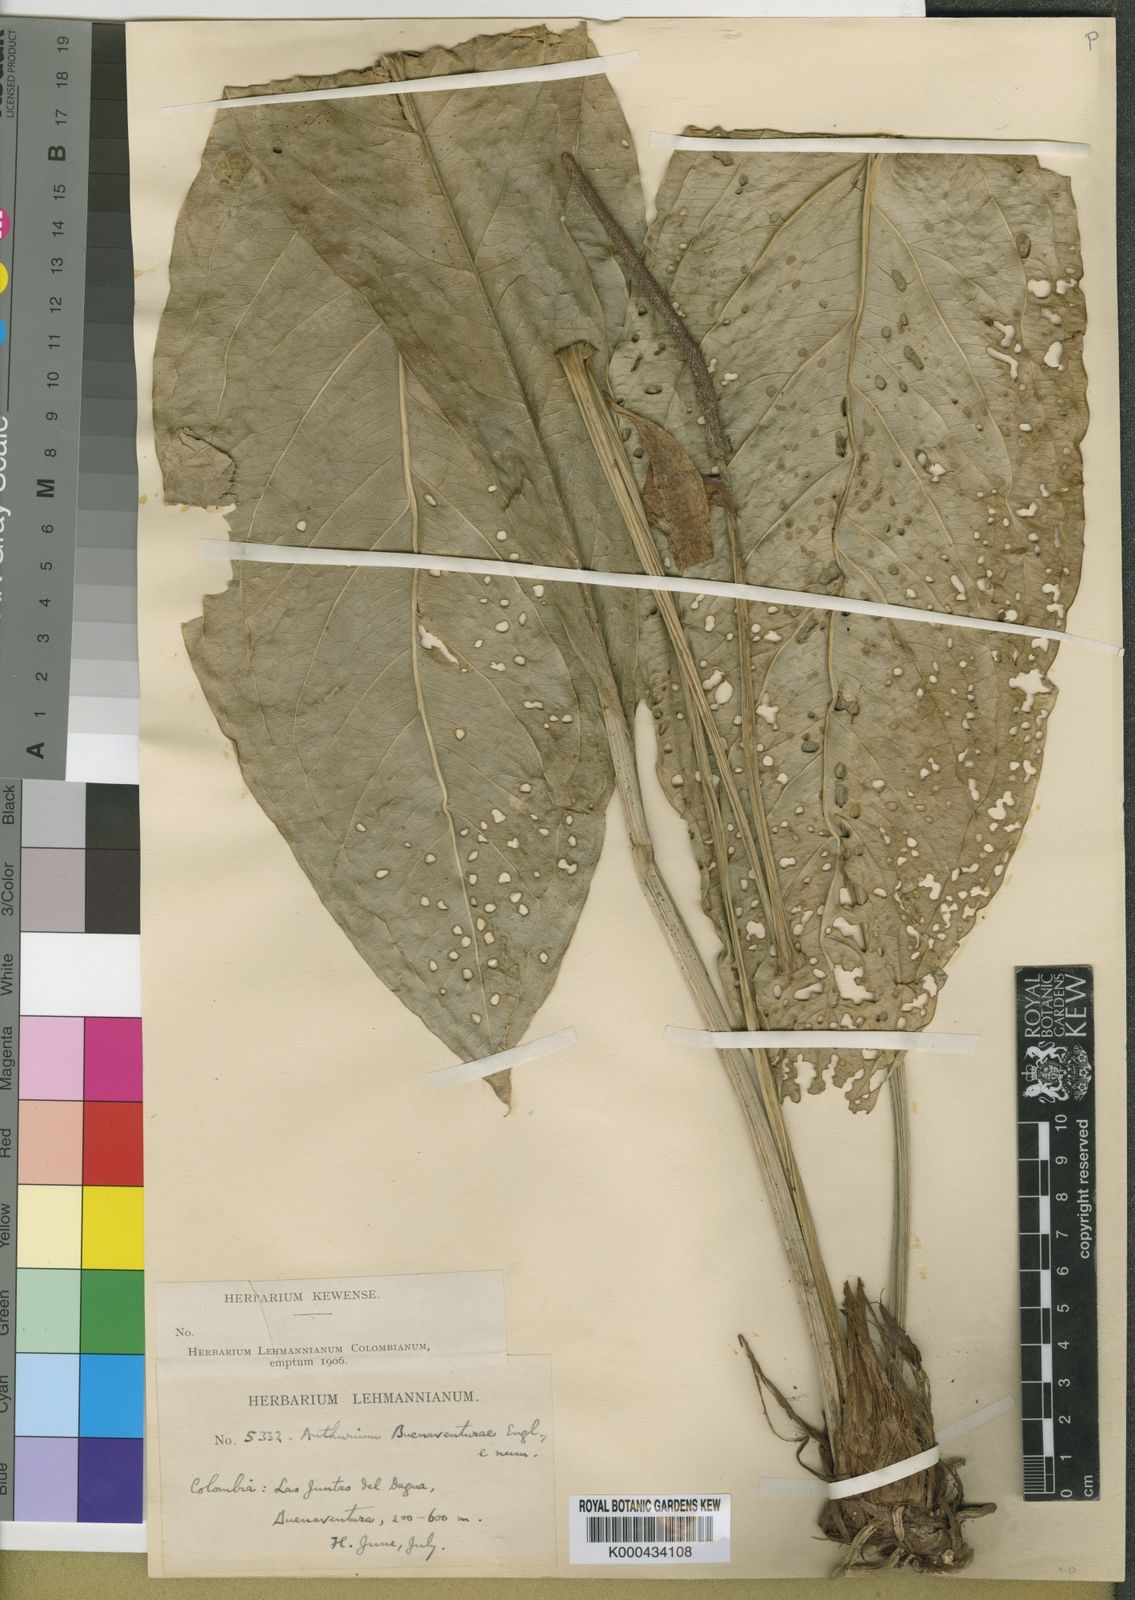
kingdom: Plantae
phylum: Tracheophyta
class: Liliopsida
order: Alismatales
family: Araceae
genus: Anthurium
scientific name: Anthurium fendleri
